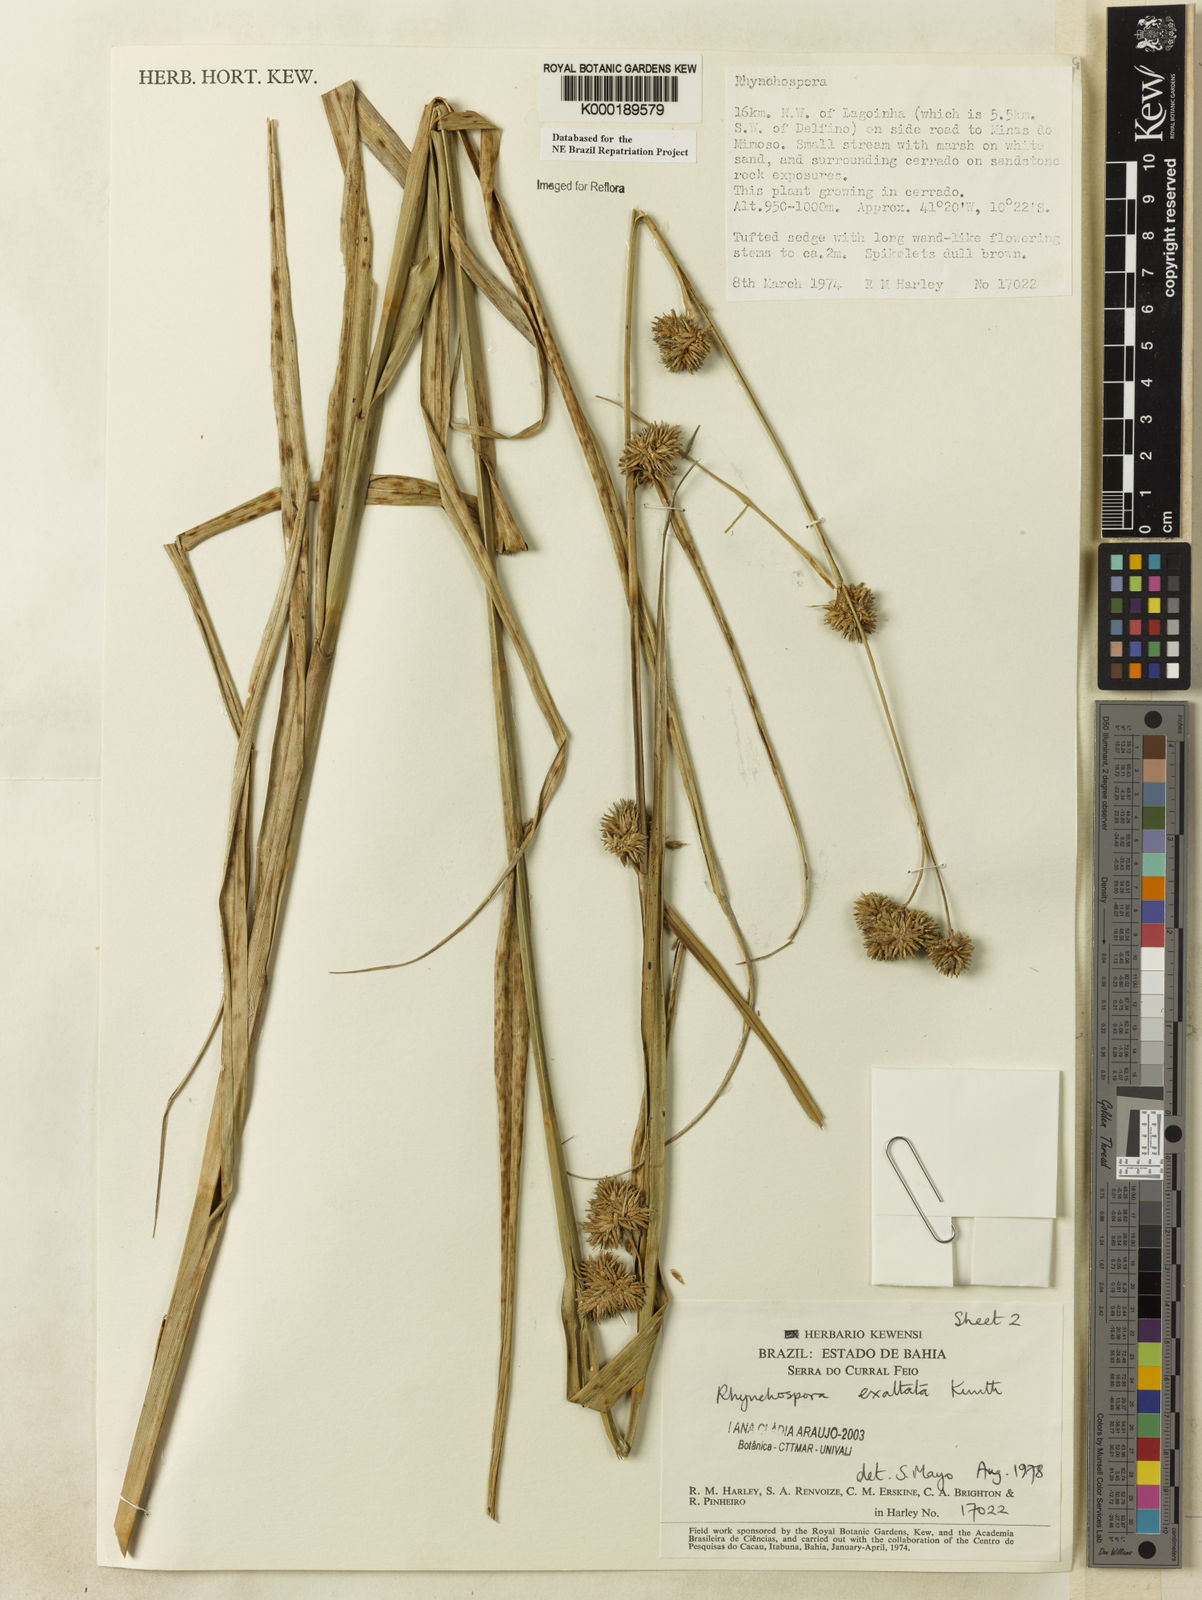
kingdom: Plantae
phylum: Tracheophyta
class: Liliopsida
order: Poales
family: Cyperaceae
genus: Rhynchospora
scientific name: Rhynchospora exaltata
